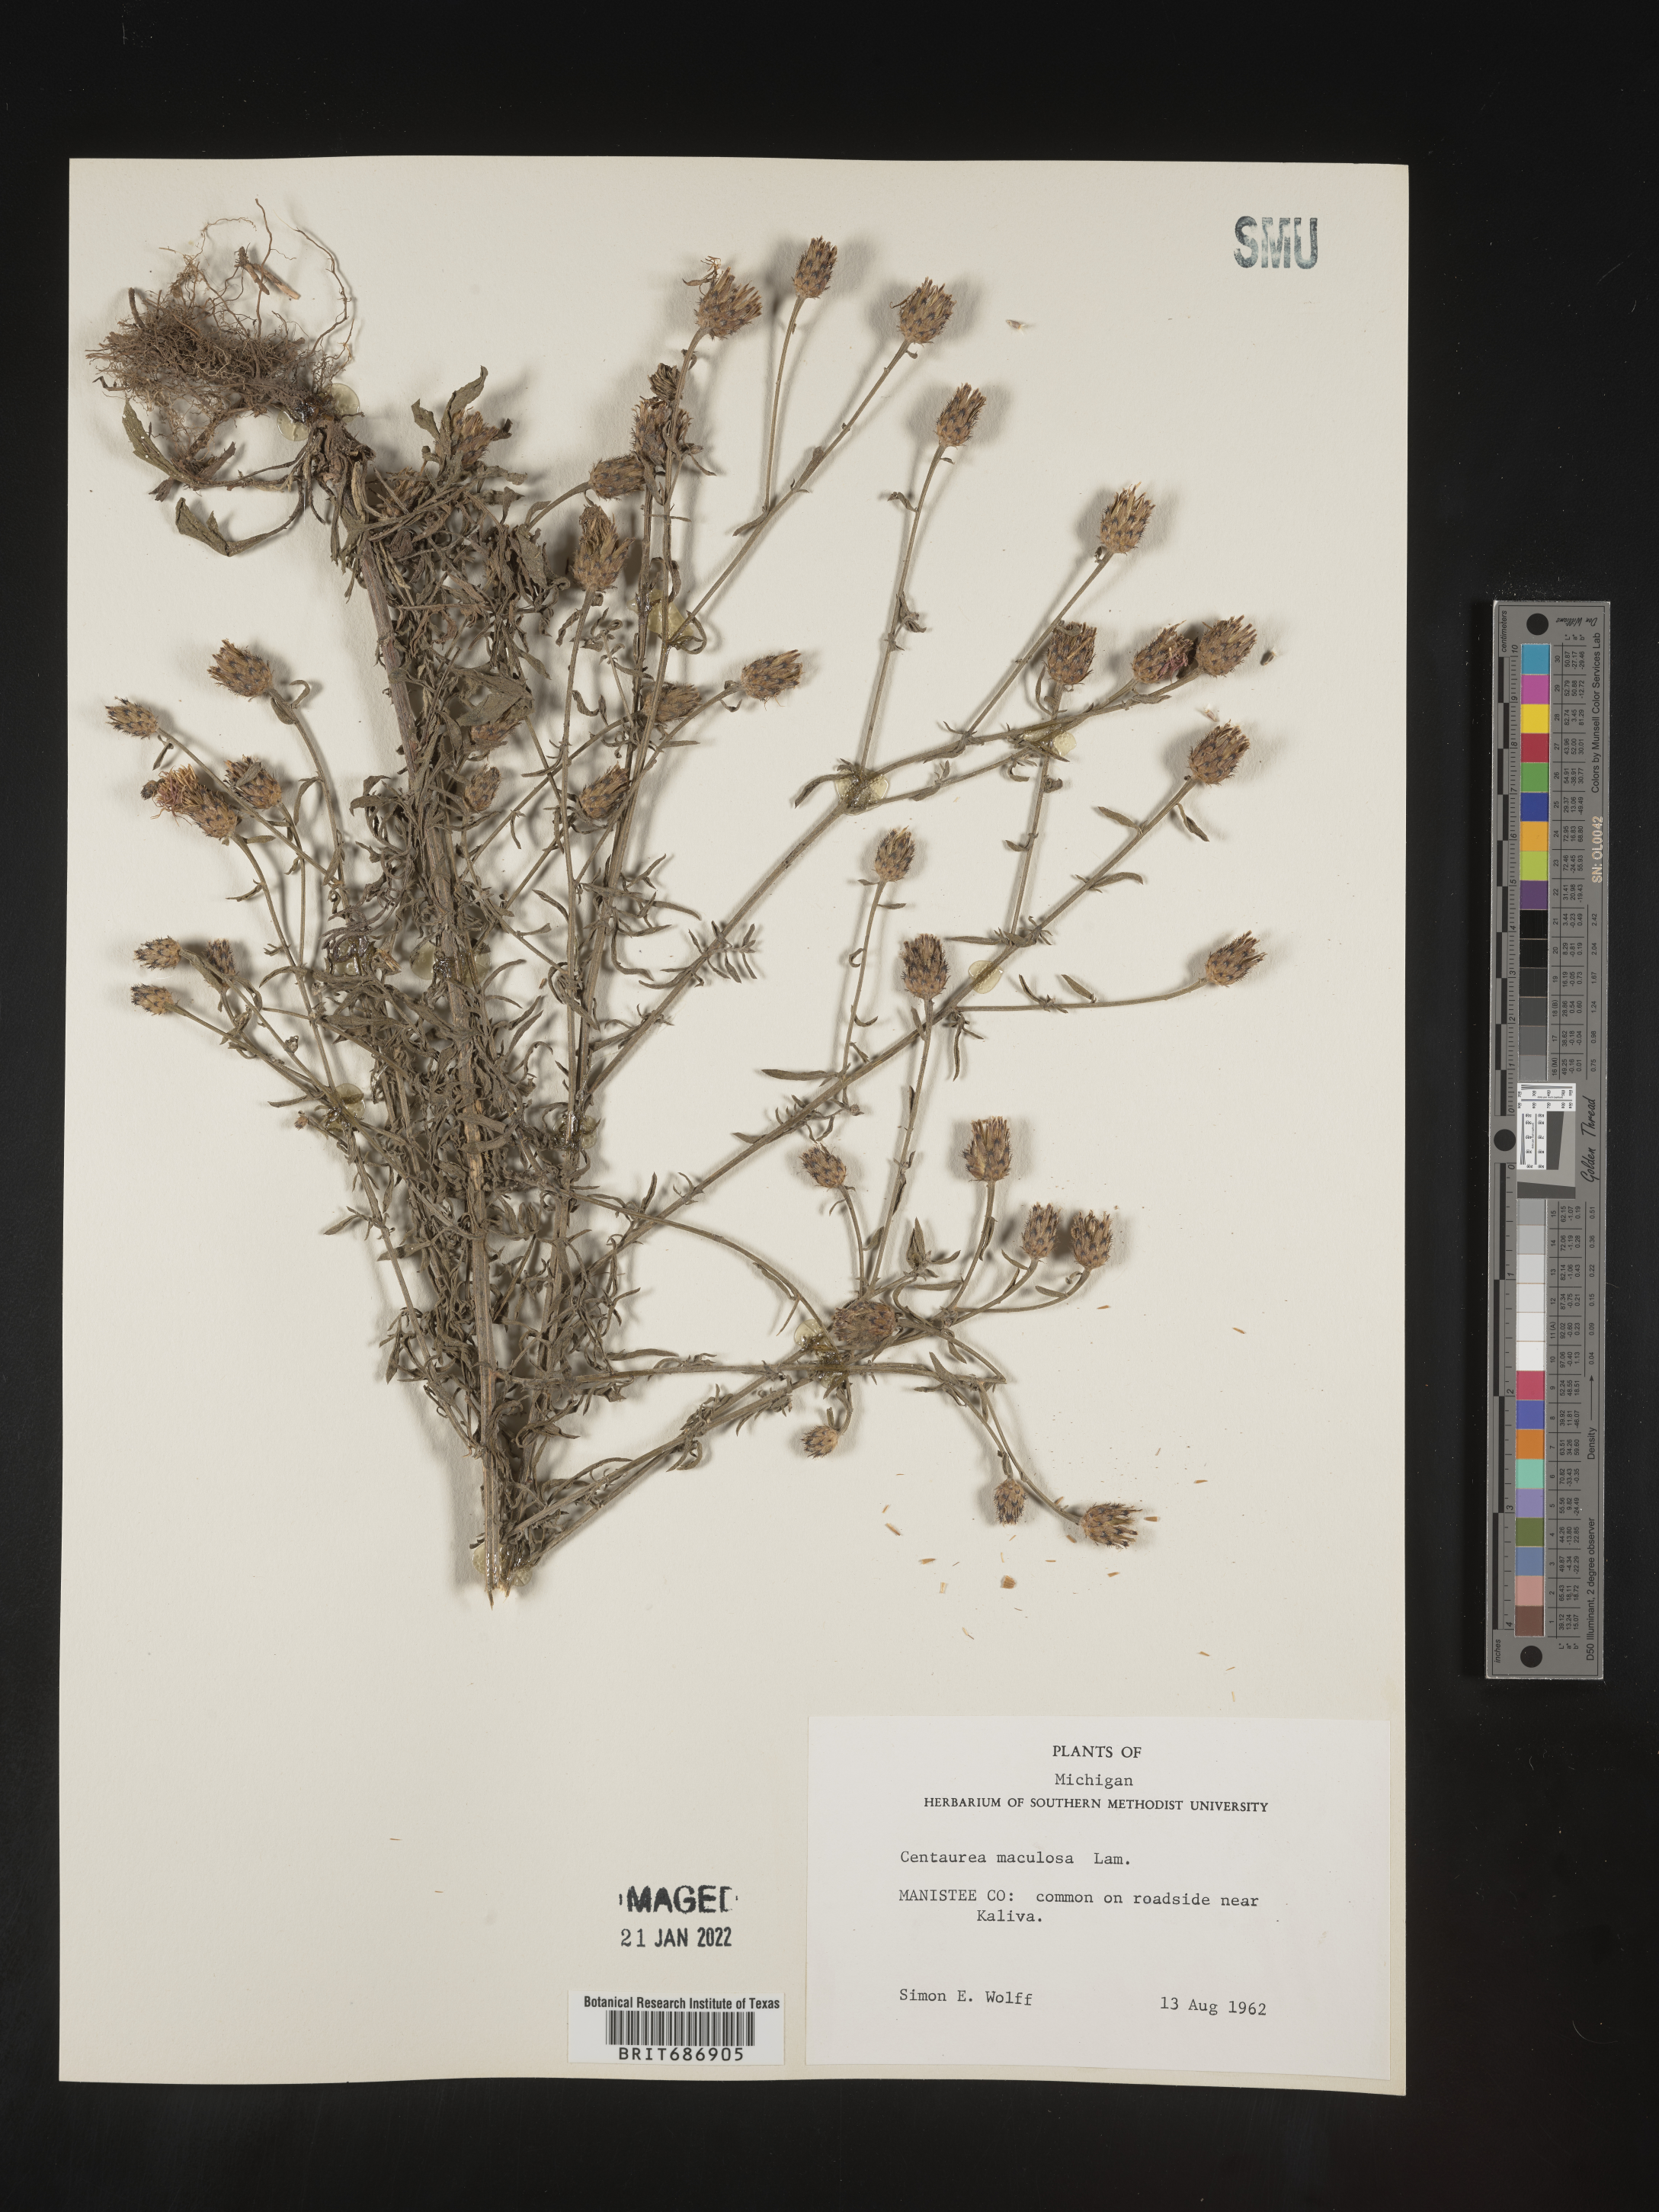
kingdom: Plantae
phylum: Tracheophyta
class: Magnoliopsida
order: Asterales
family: Asteraceae
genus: Centaurea
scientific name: Centaurea stoebe
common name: Spotted knapweed
